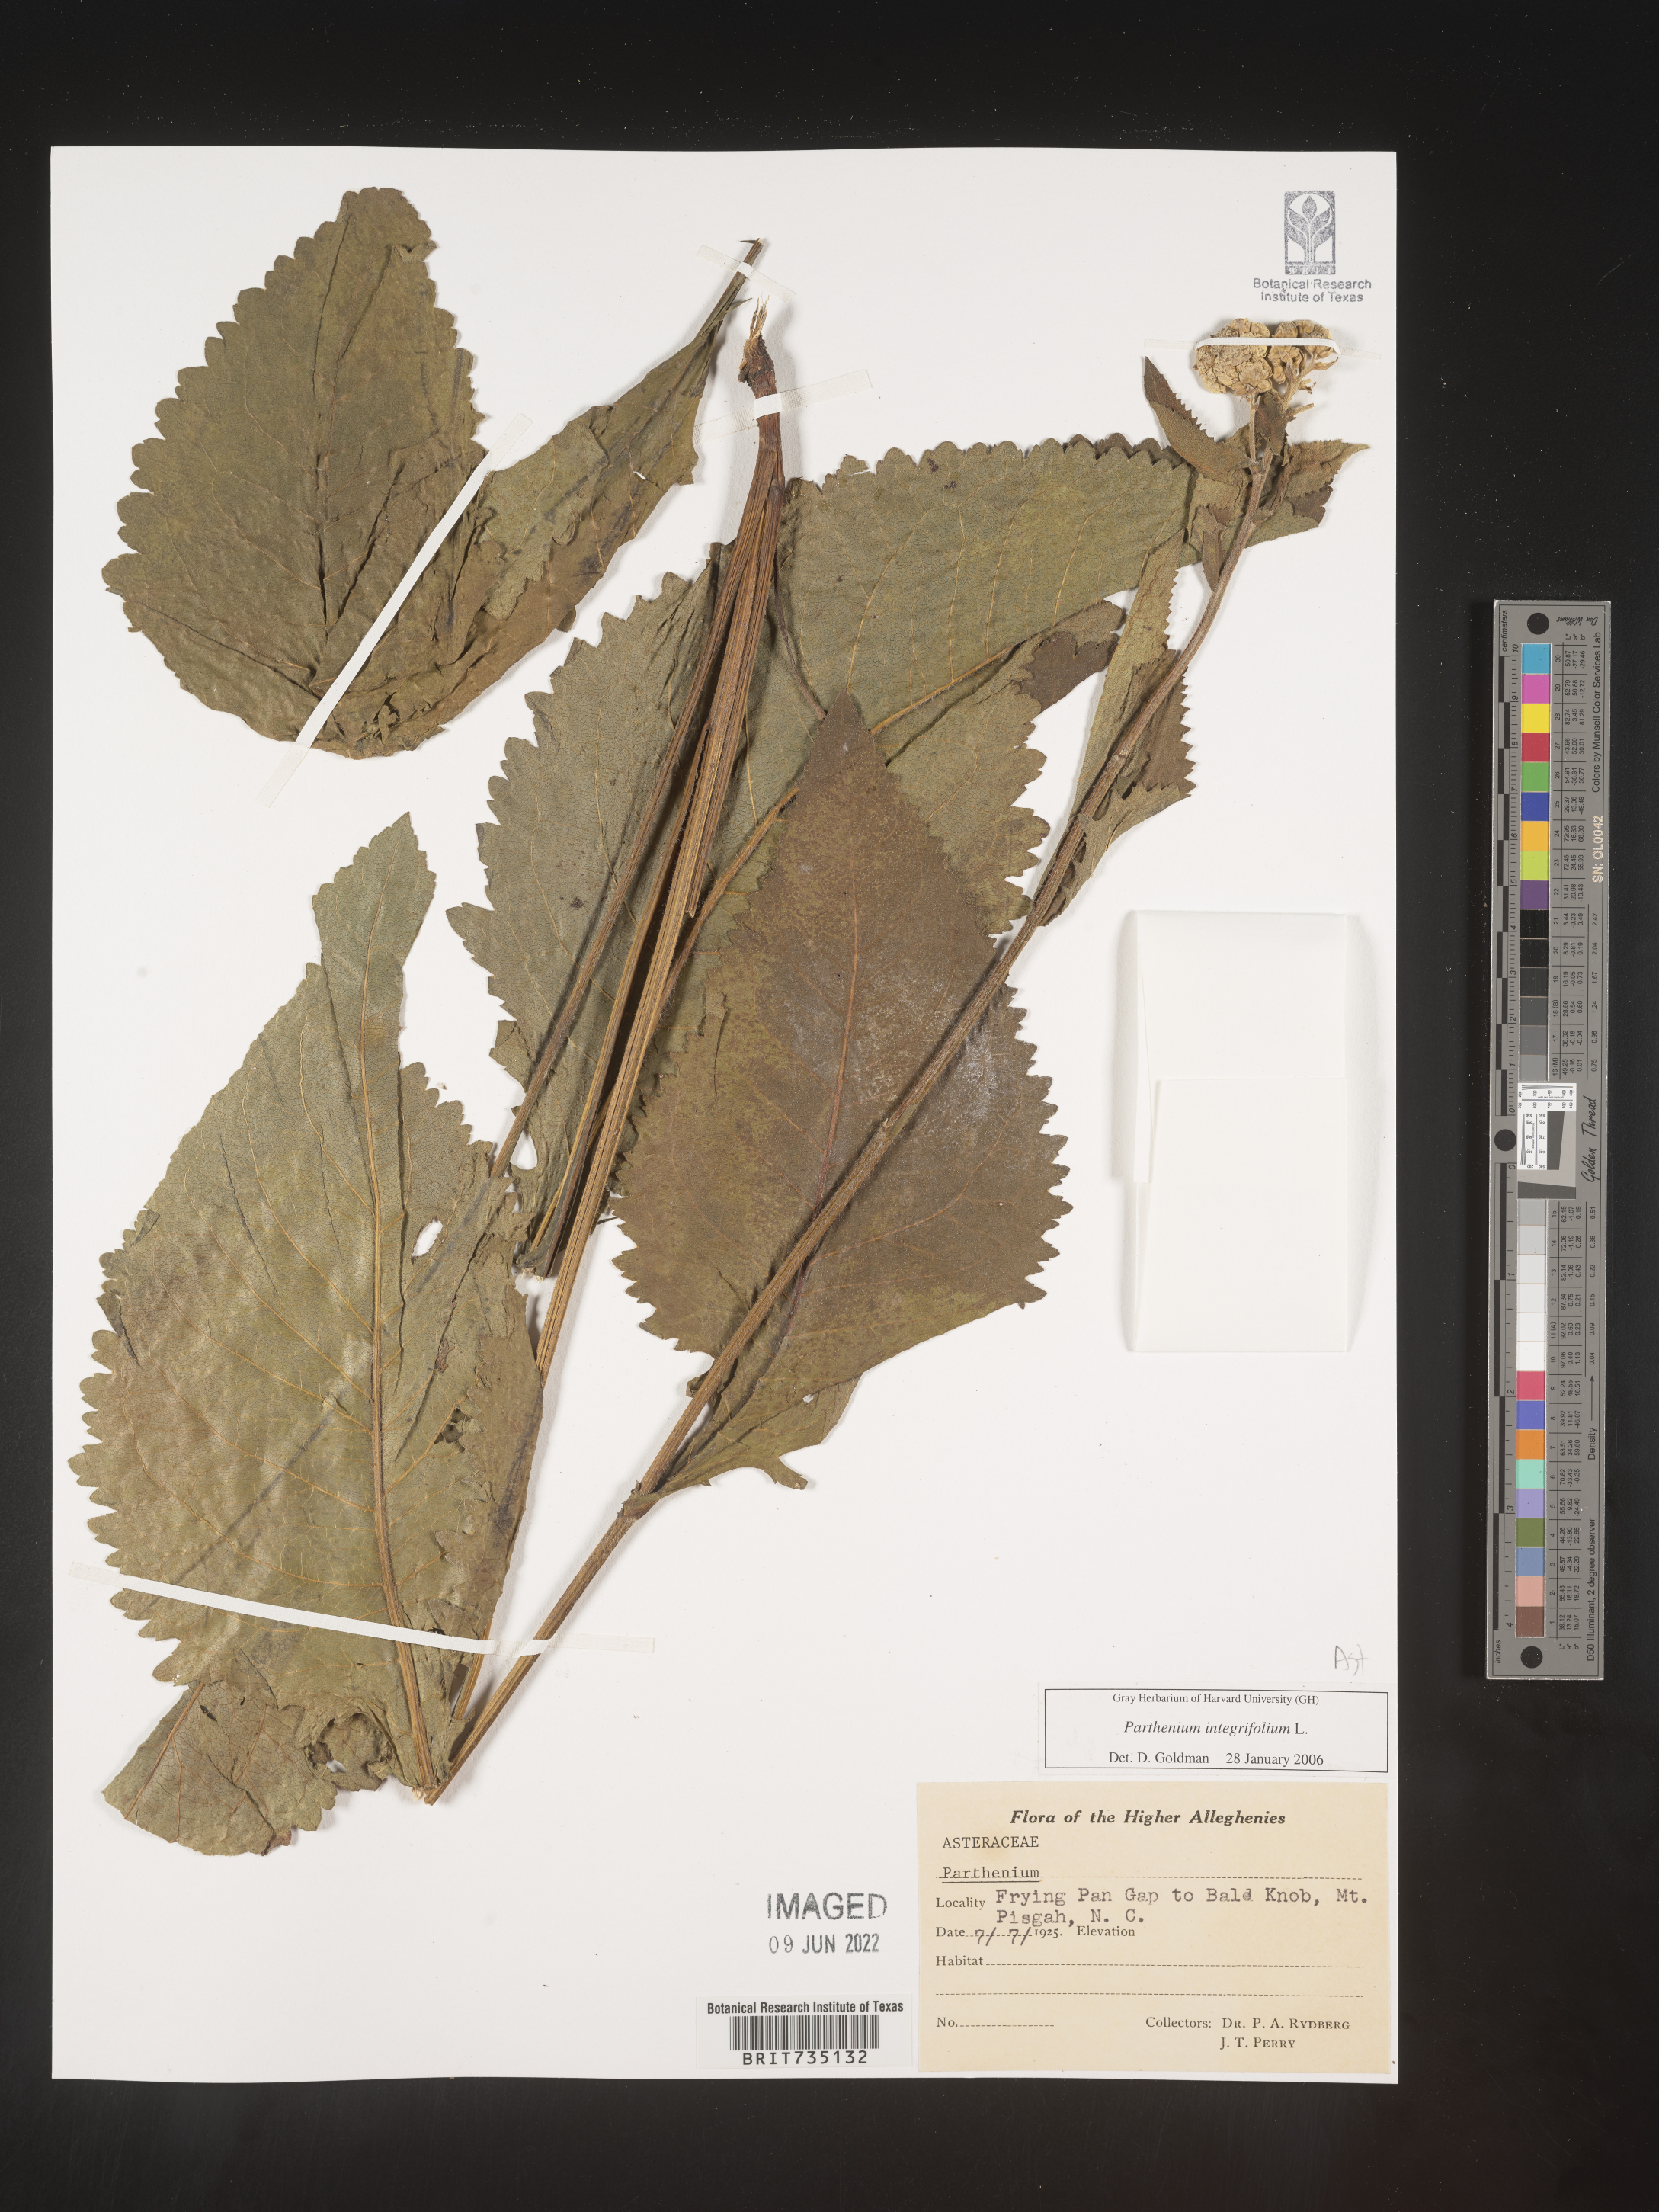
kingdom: Plantae
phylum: Tracheophyta
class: Magnoliopsida
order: Asterales
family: Asteraceae
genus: Parthenium
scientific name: Parthenium integrifolium
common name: American feverfew
